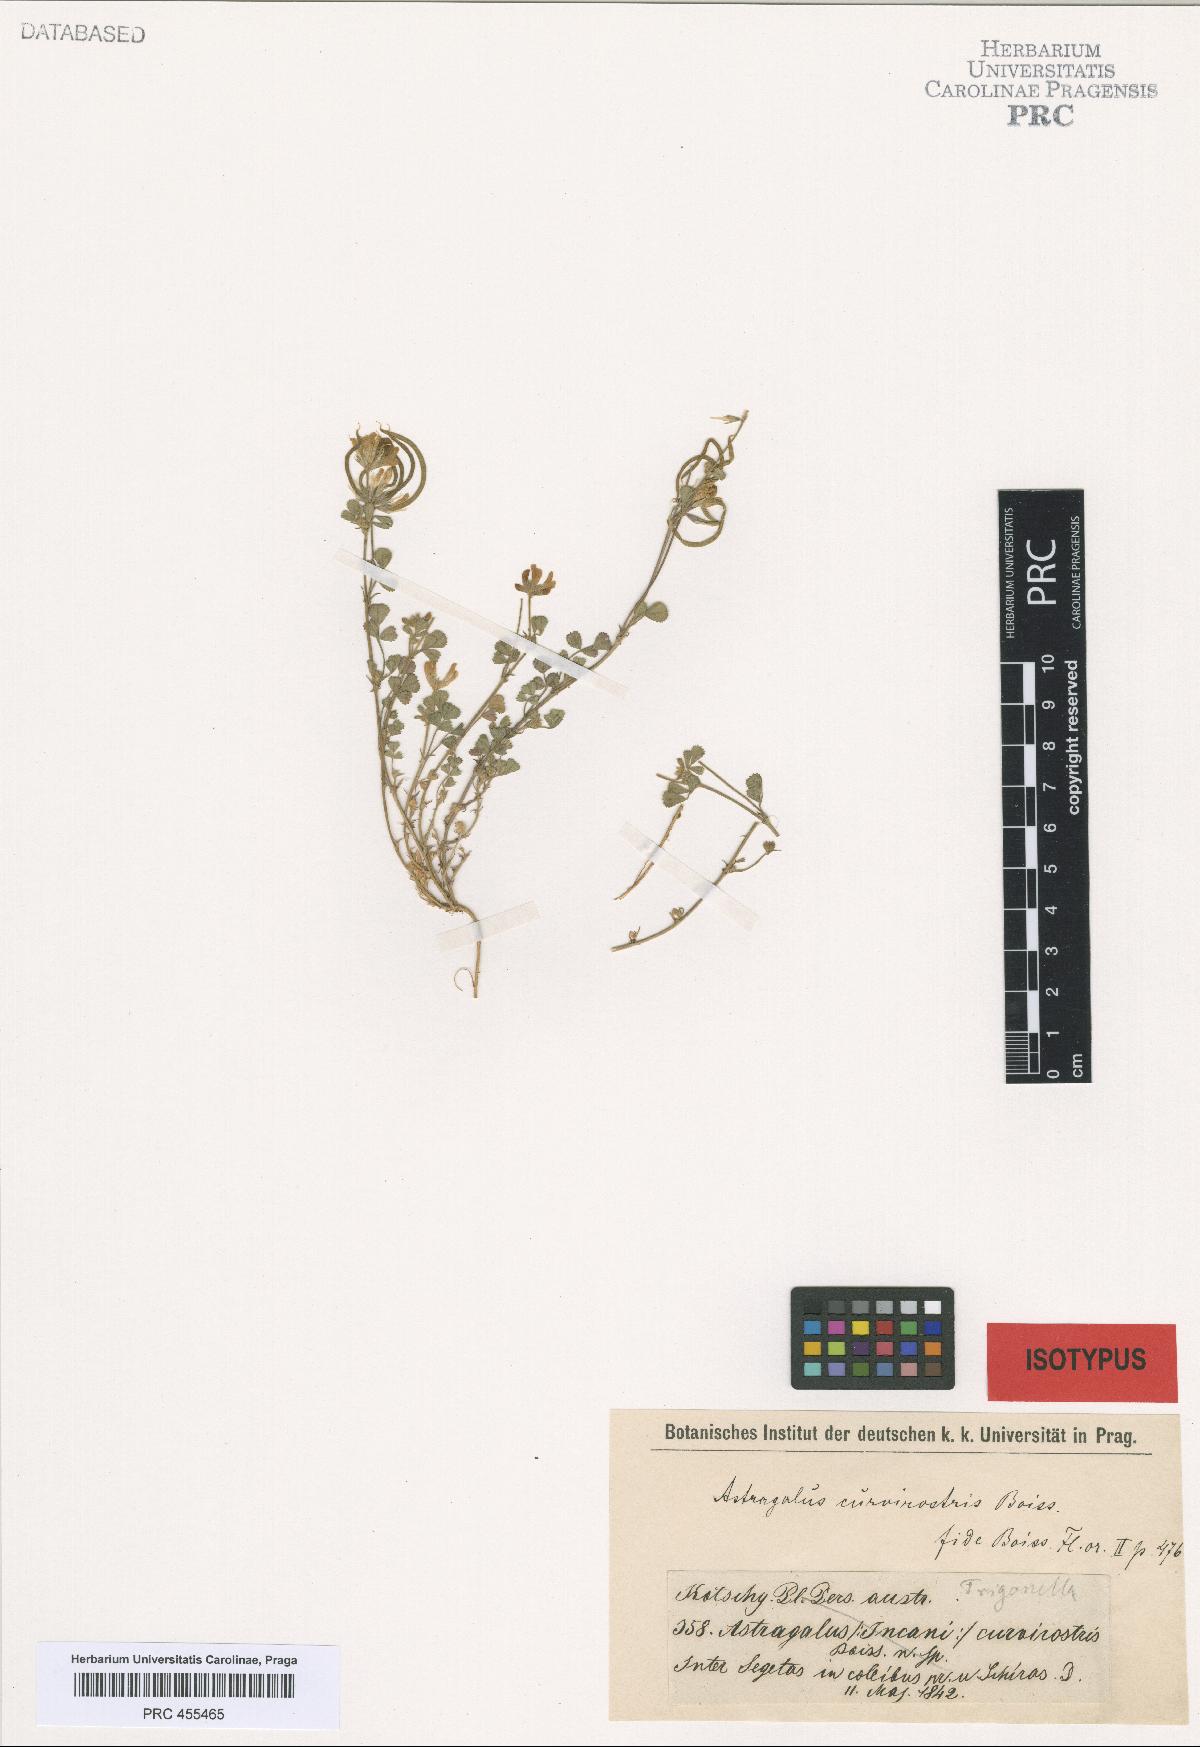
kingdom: Plantae
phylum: Tracheophyta
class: Magnoliopsida
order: Fabales
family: Fabaceae
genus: Astragalus
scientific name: Astragalus curvirostris
